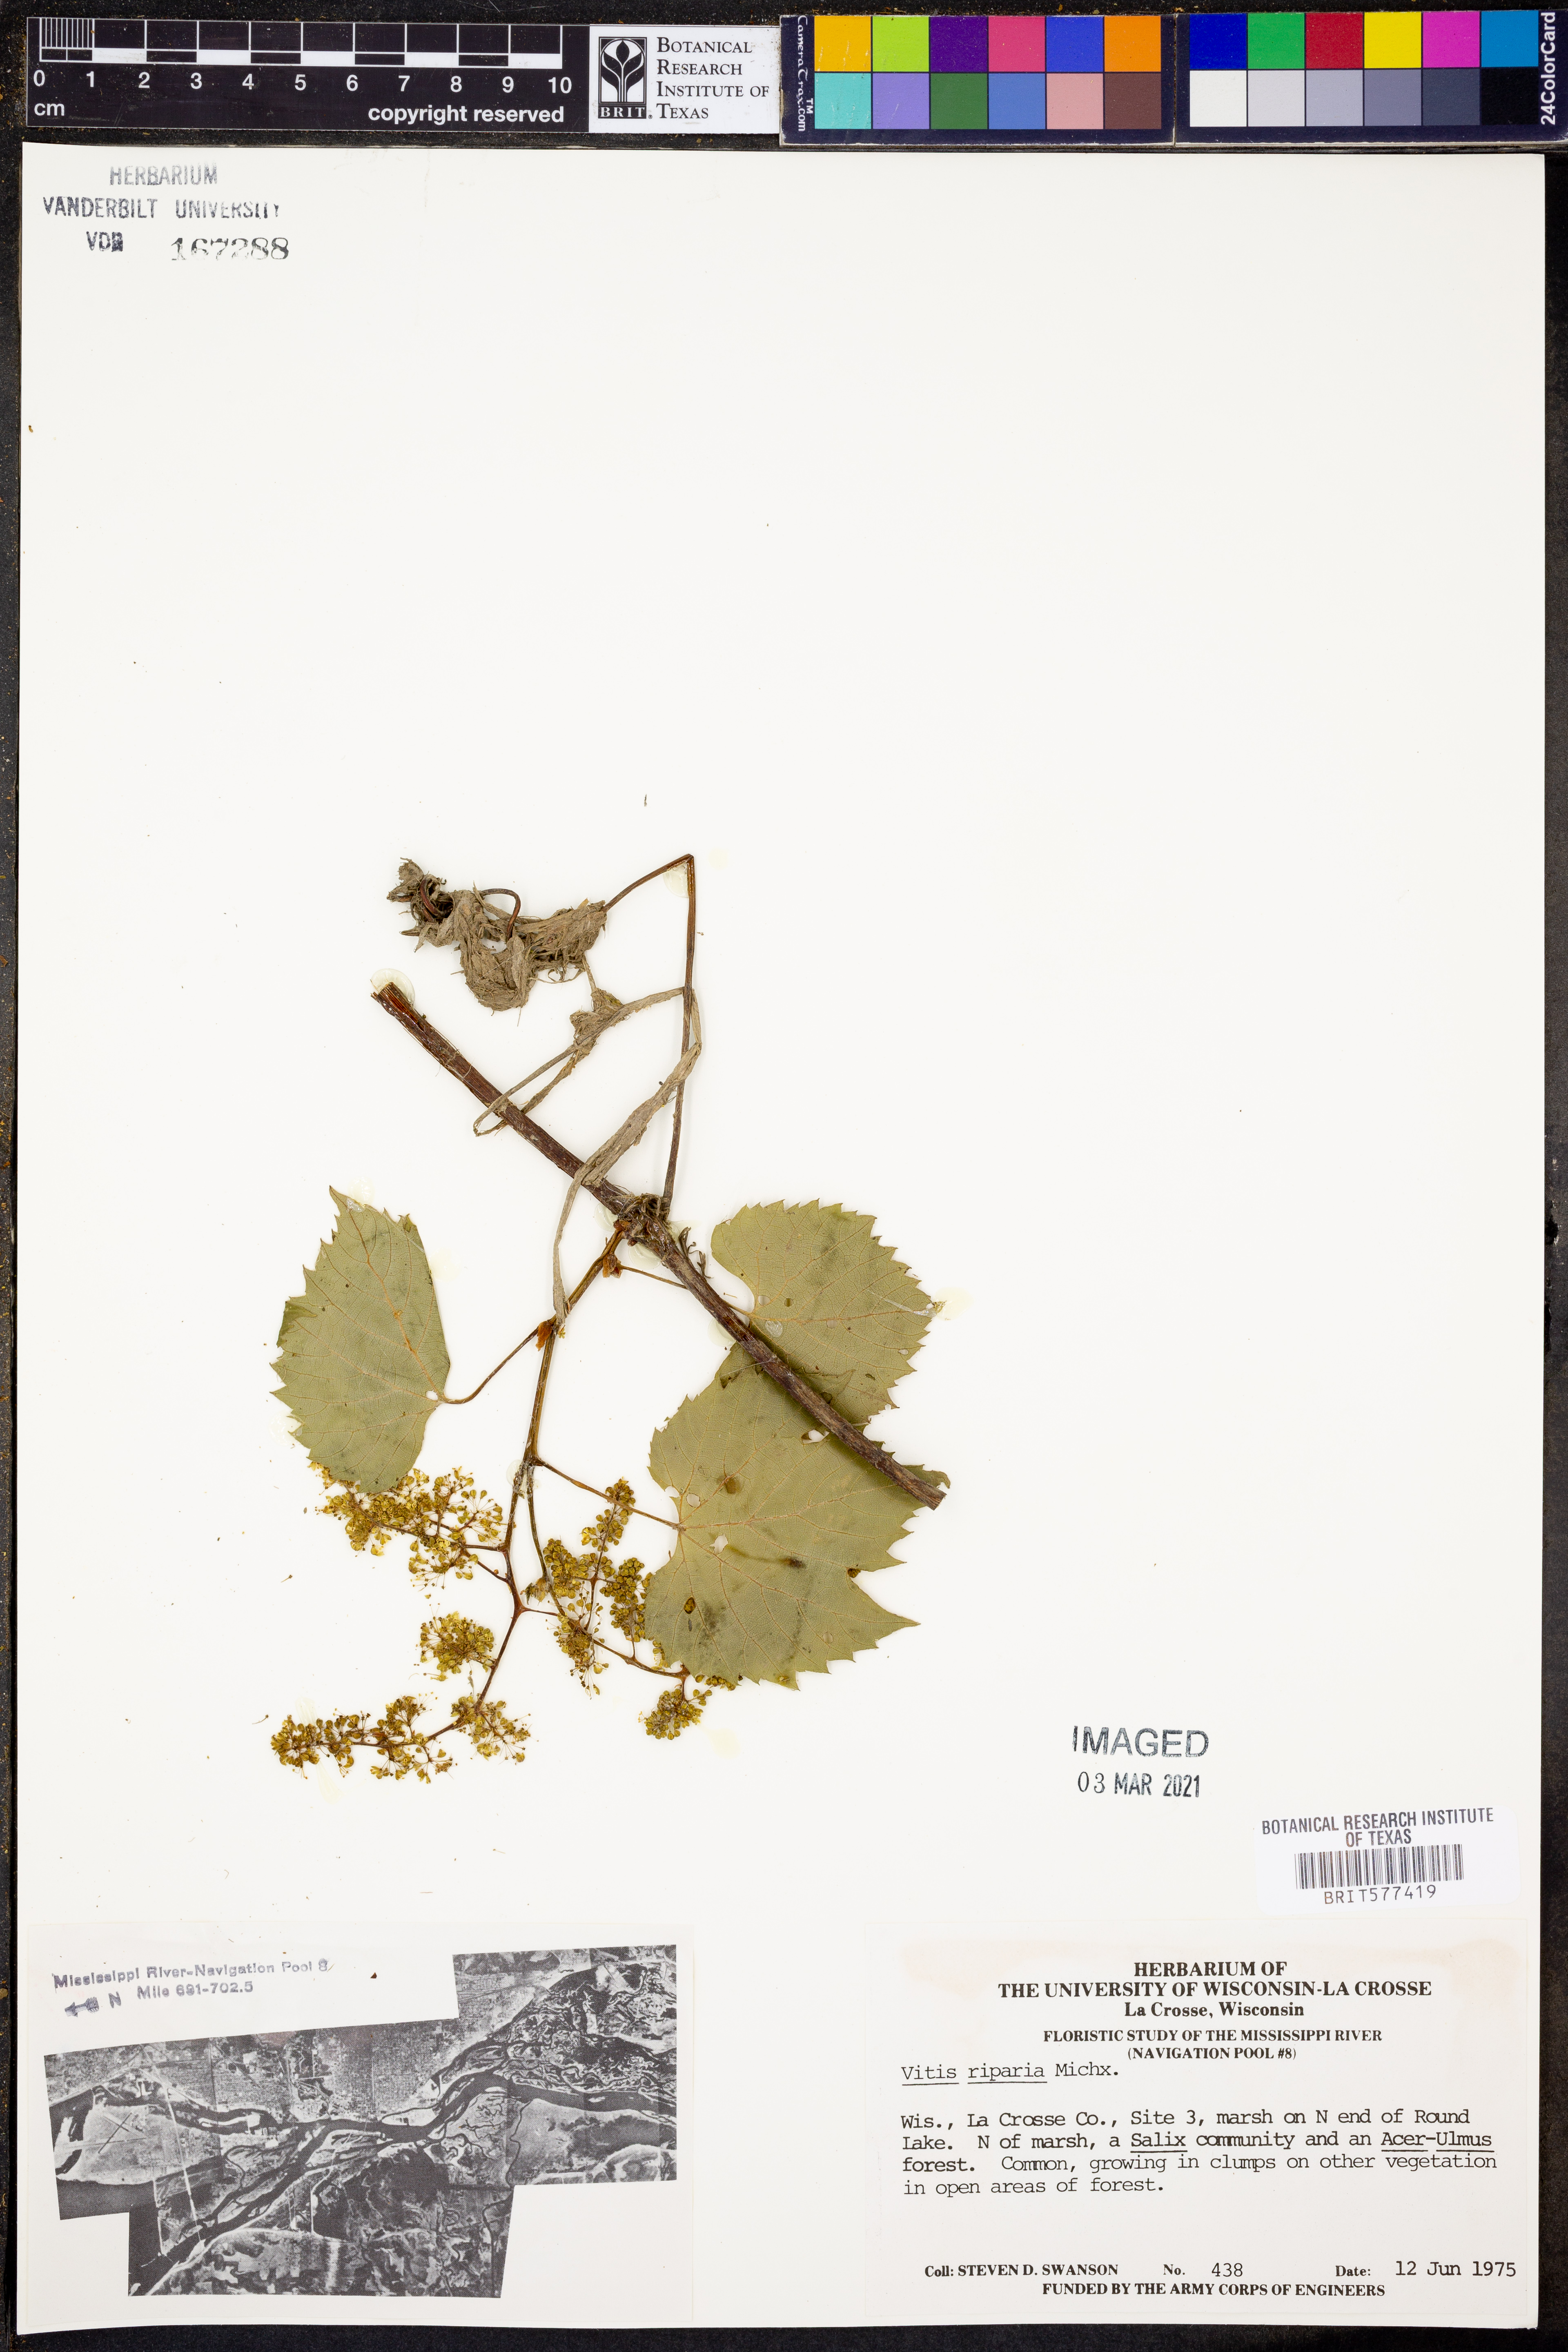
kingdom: Plantae
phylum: Tracheophyta
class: Magnoliopsida
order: Vitales
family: Vitaceae
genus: Vitis
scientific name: Vitis riparia
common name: Frost grape
